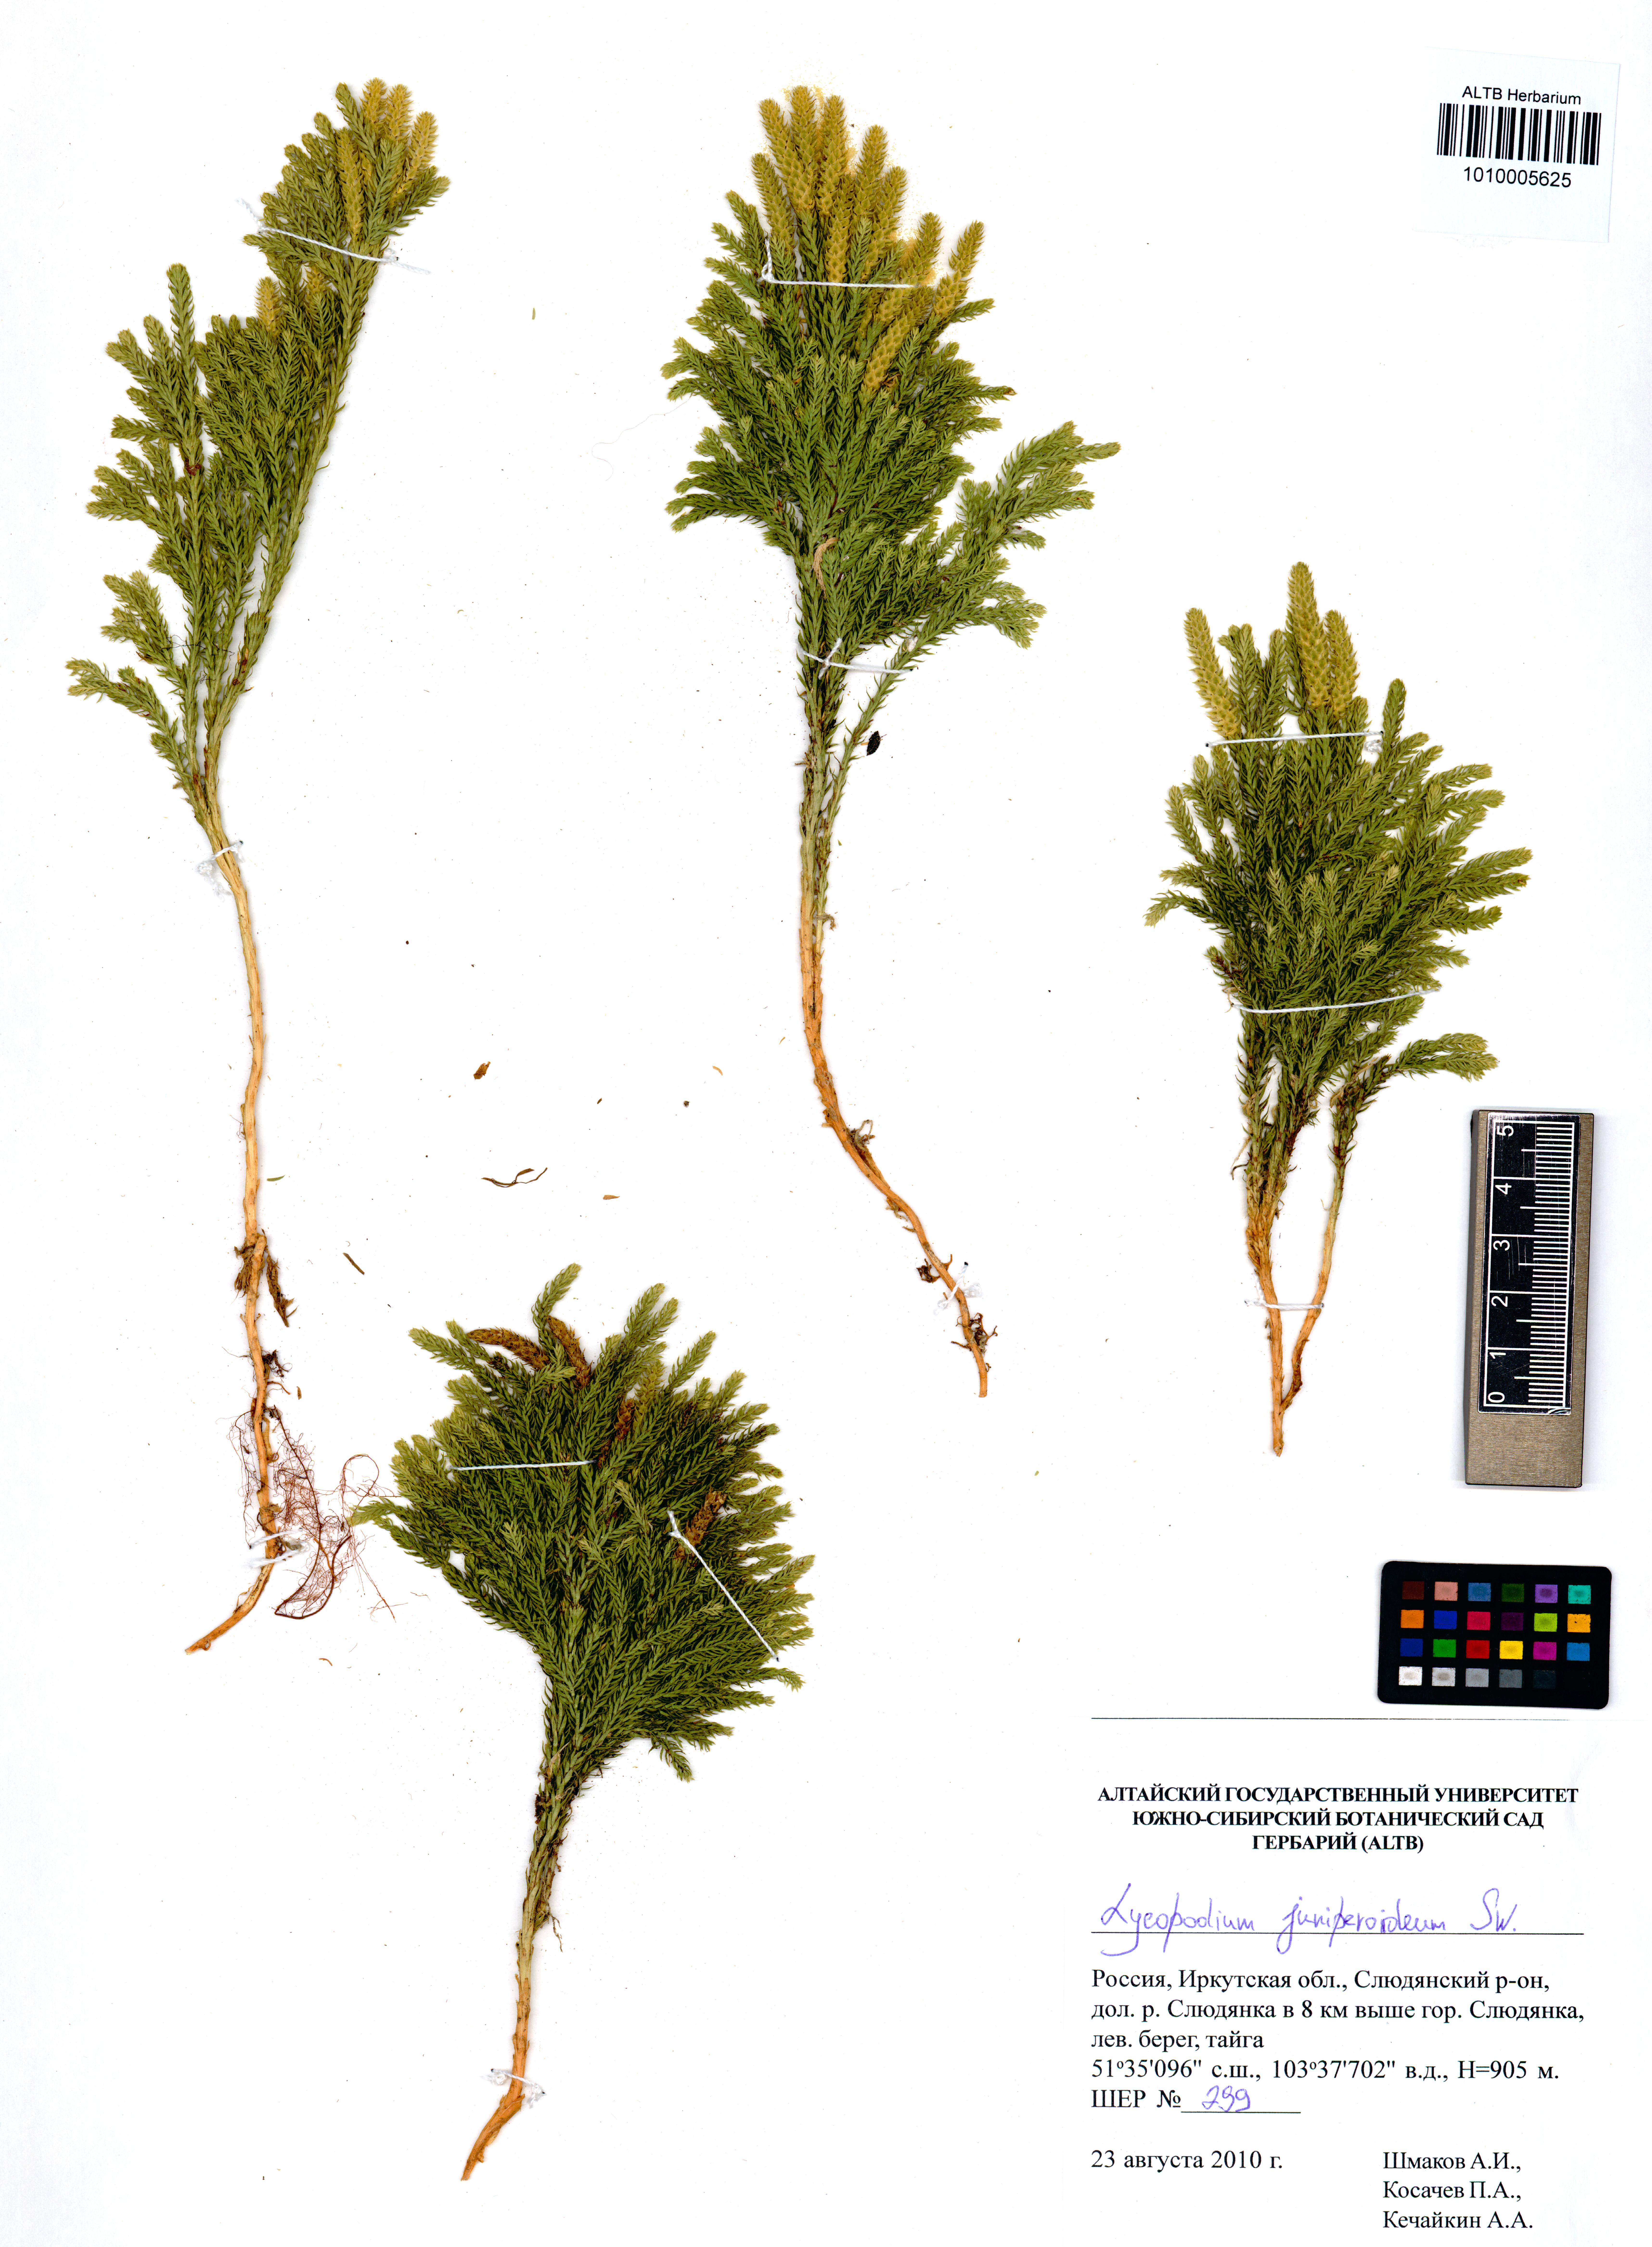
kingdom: Plantae
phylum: Tracheophyta
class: Lycopodiopsida
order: Lycopodiales
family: Lycopodiaceae
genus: Dendrolycopodium
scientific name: Dendrolycopodium juniperoideum
